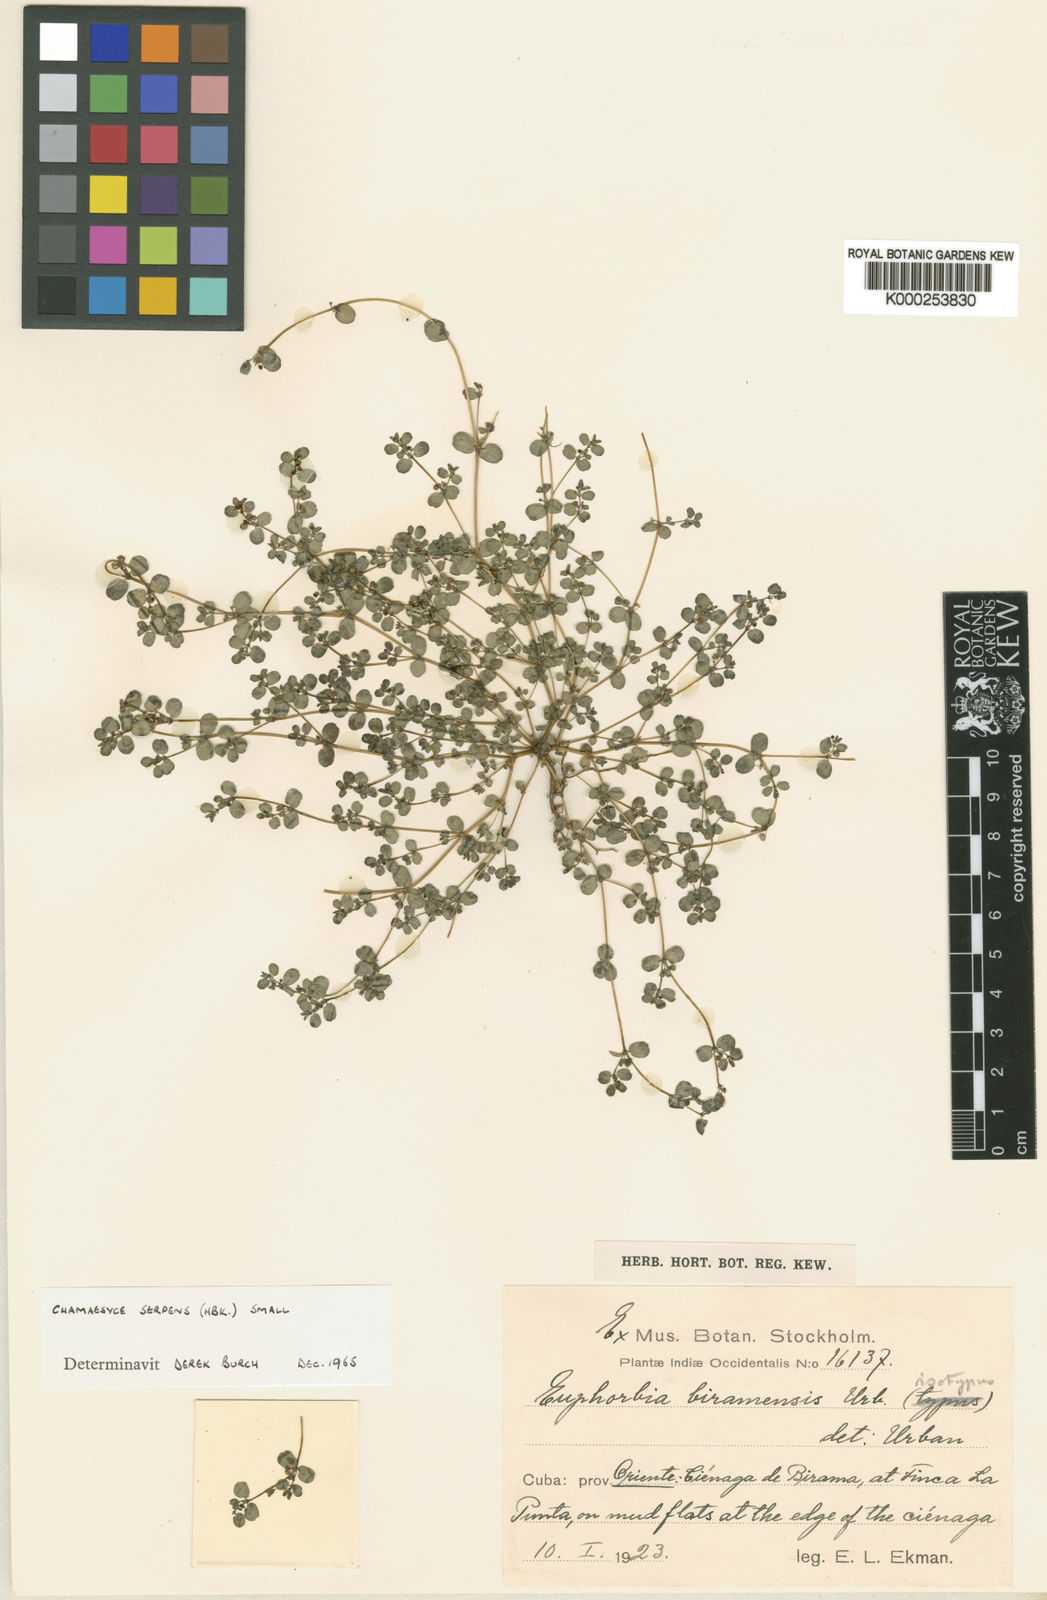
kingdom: Plantae
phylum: Tracheophyta
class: Magnoliopsida
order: Malpighiales
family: Euphorbiaceae
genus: Euphorbia
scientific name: Euphorbia serpens
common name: Matted sandmat
